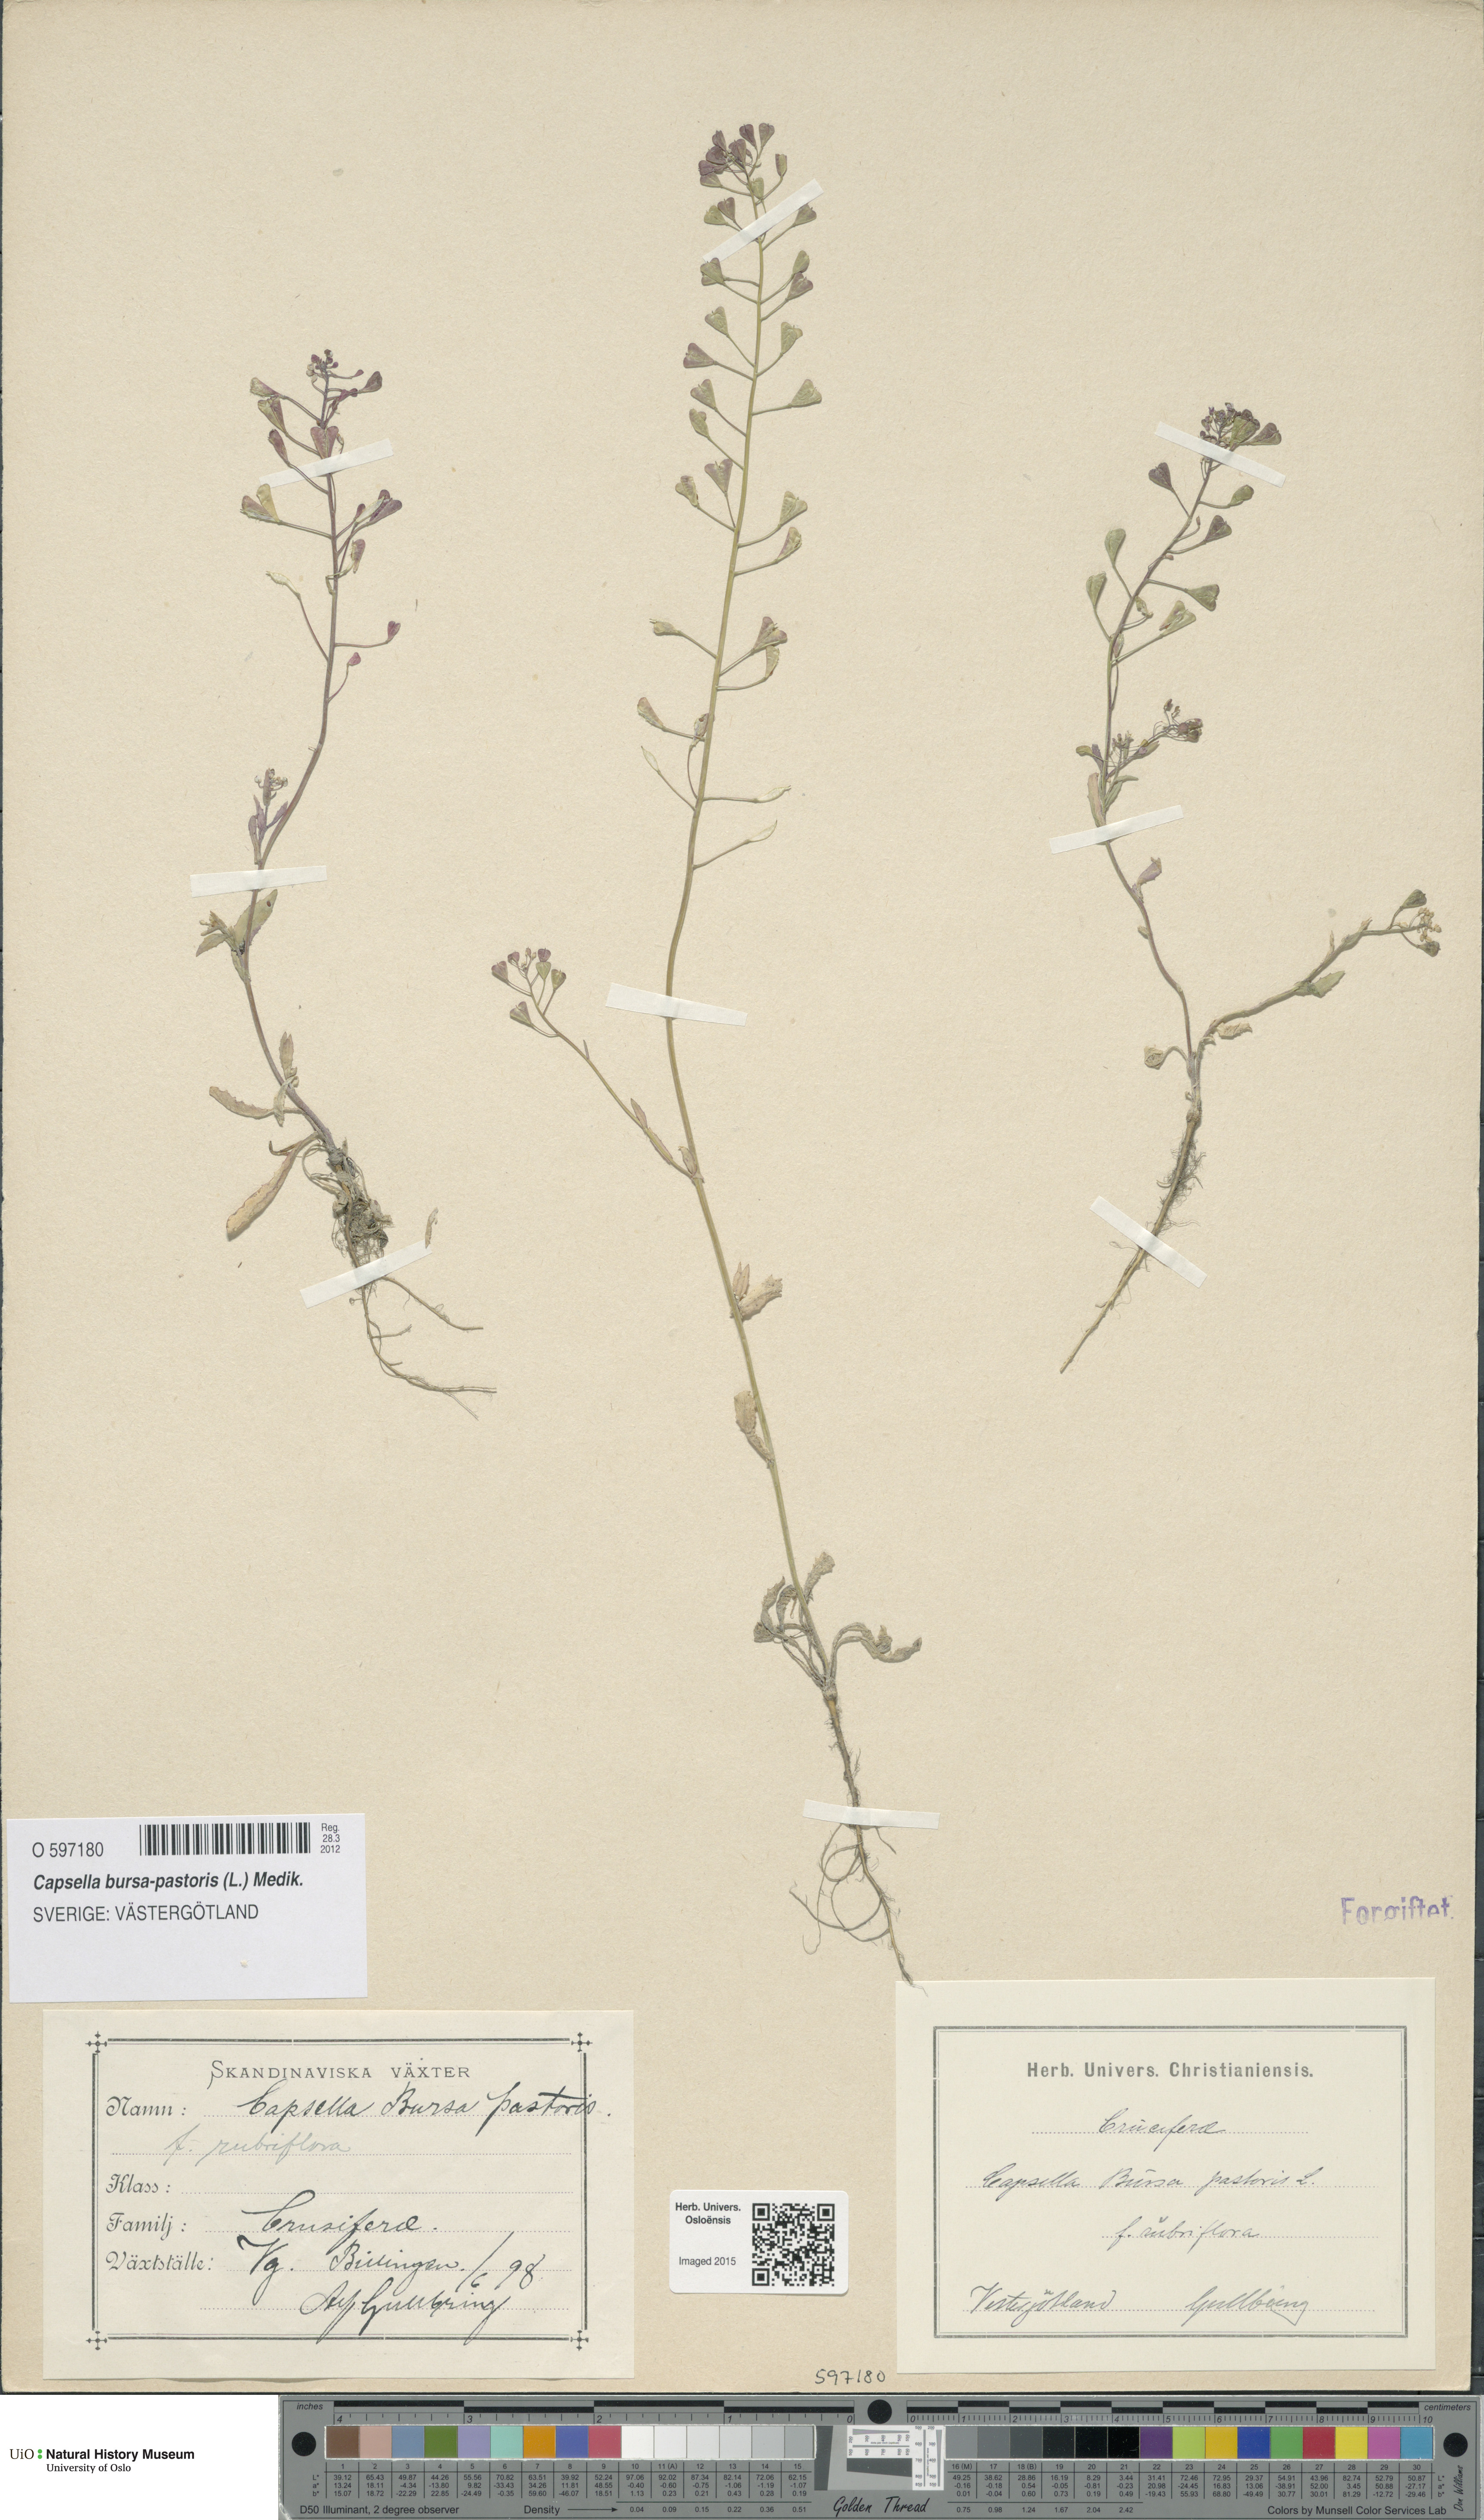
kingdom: Plantae
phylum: Tracheophyta
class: Magnoliopsida
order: Brassicales
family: Brassicaceae
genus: Capsella
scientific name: Capsella bursa-pastoris
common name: Shepherd's purse
